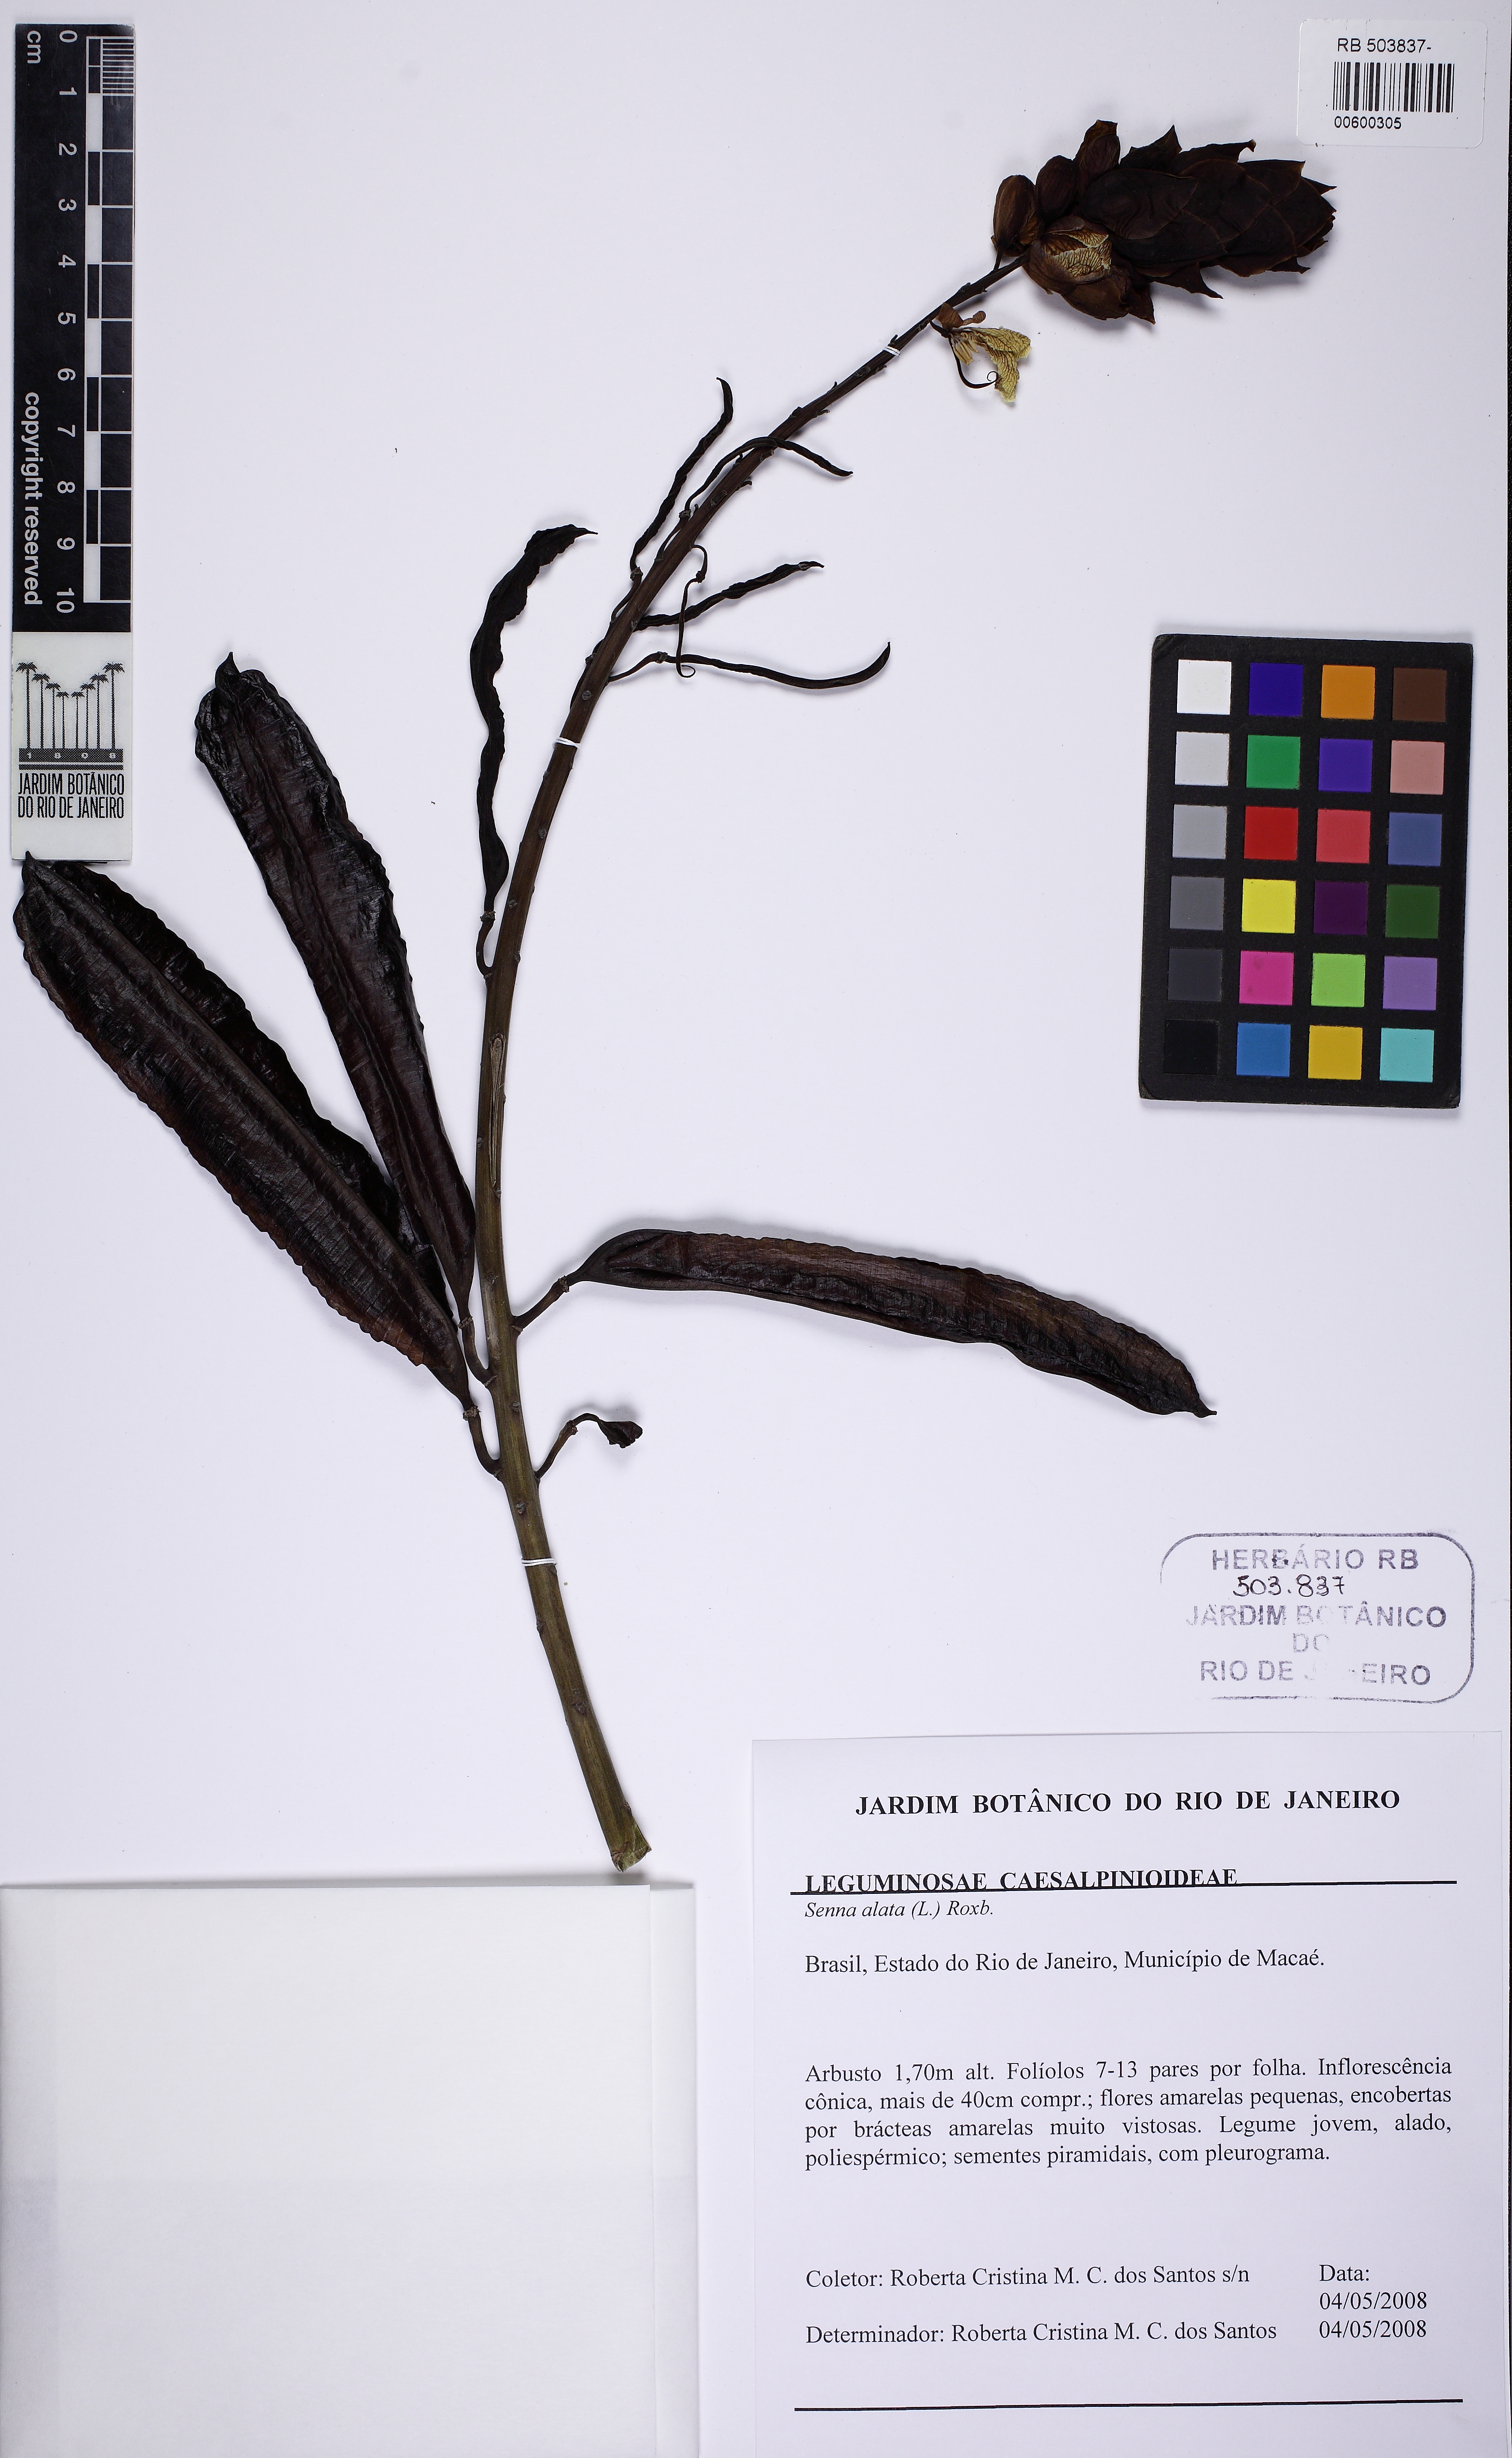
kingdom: Plantae
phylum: Tracheophyta
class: Magnoliopsida
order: Fabales
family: Fabaceae
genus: Senna
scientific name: Senna alata
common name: Emperor's candlesticks
